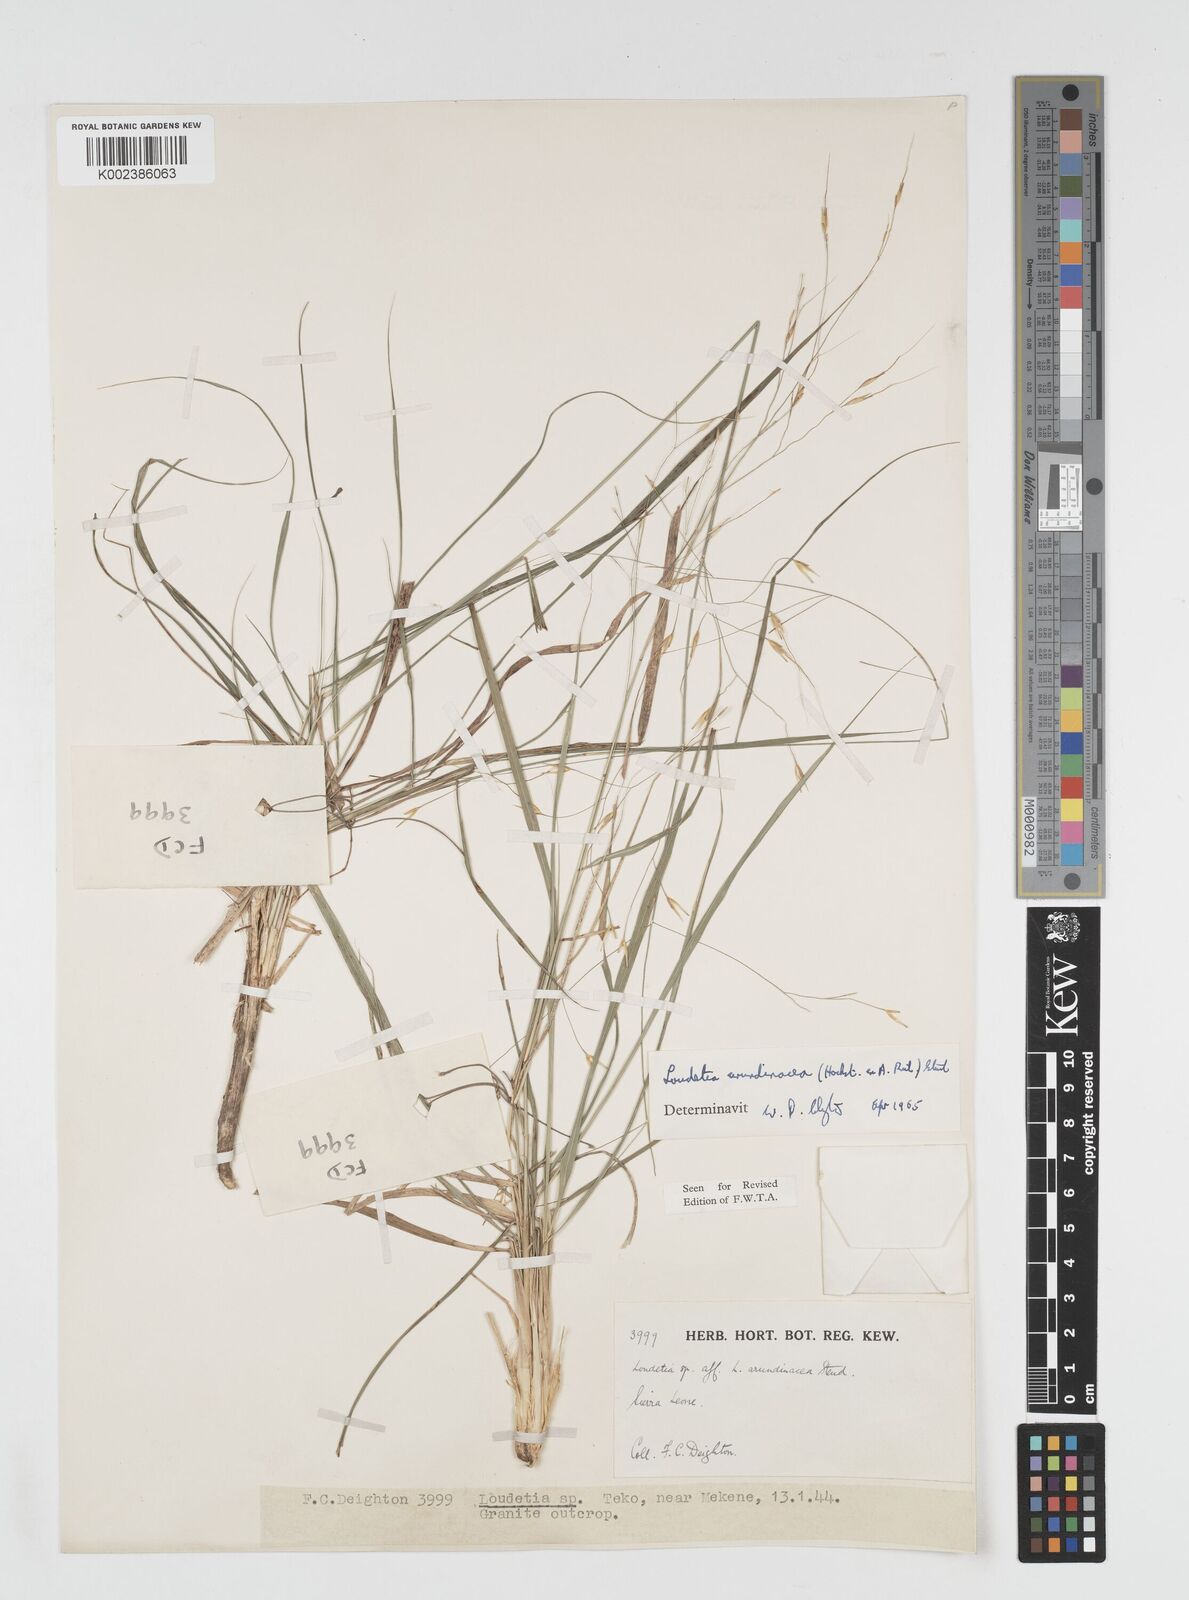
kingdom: Plantae
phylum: Tracheophyta
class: Liliopsida
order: Poales
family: Poaceae
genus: Loudetia
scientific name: Loudetia arundinacea
